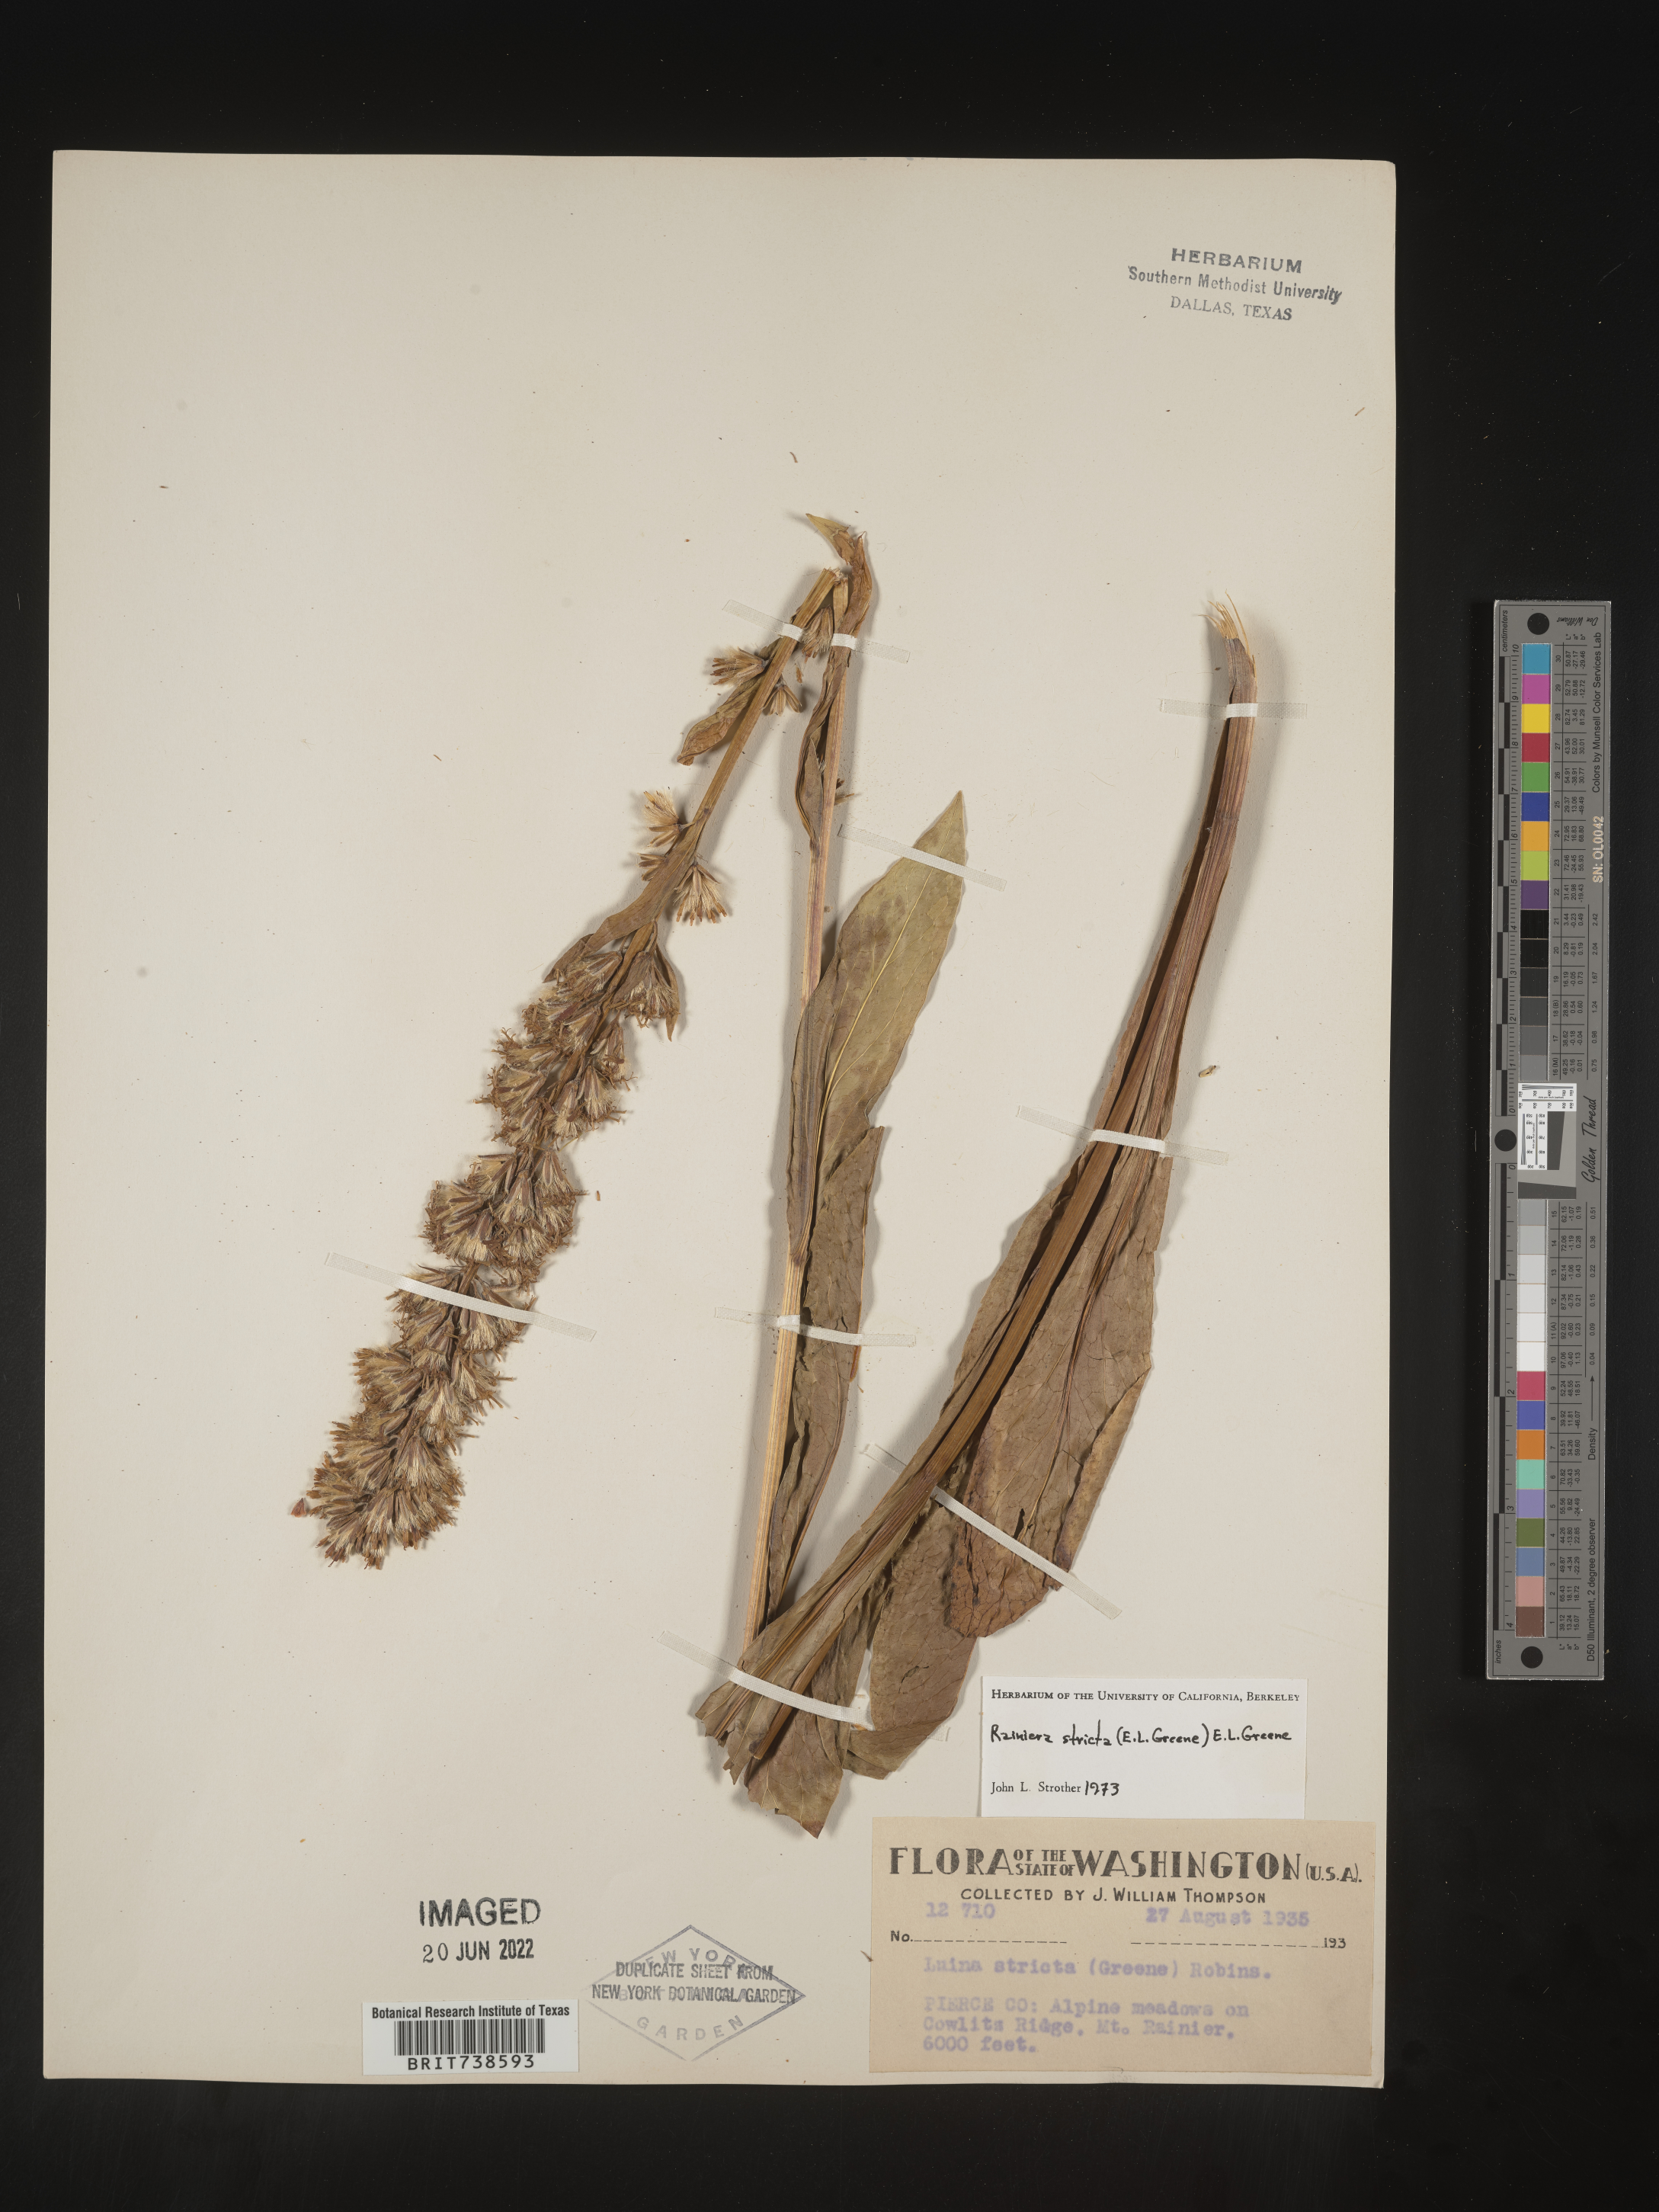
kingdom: Plantae
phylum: Tracheophyta
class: Magnoliopsida
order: Asterales
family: Asteraceae
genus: Rainiera
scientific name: Rainiera
